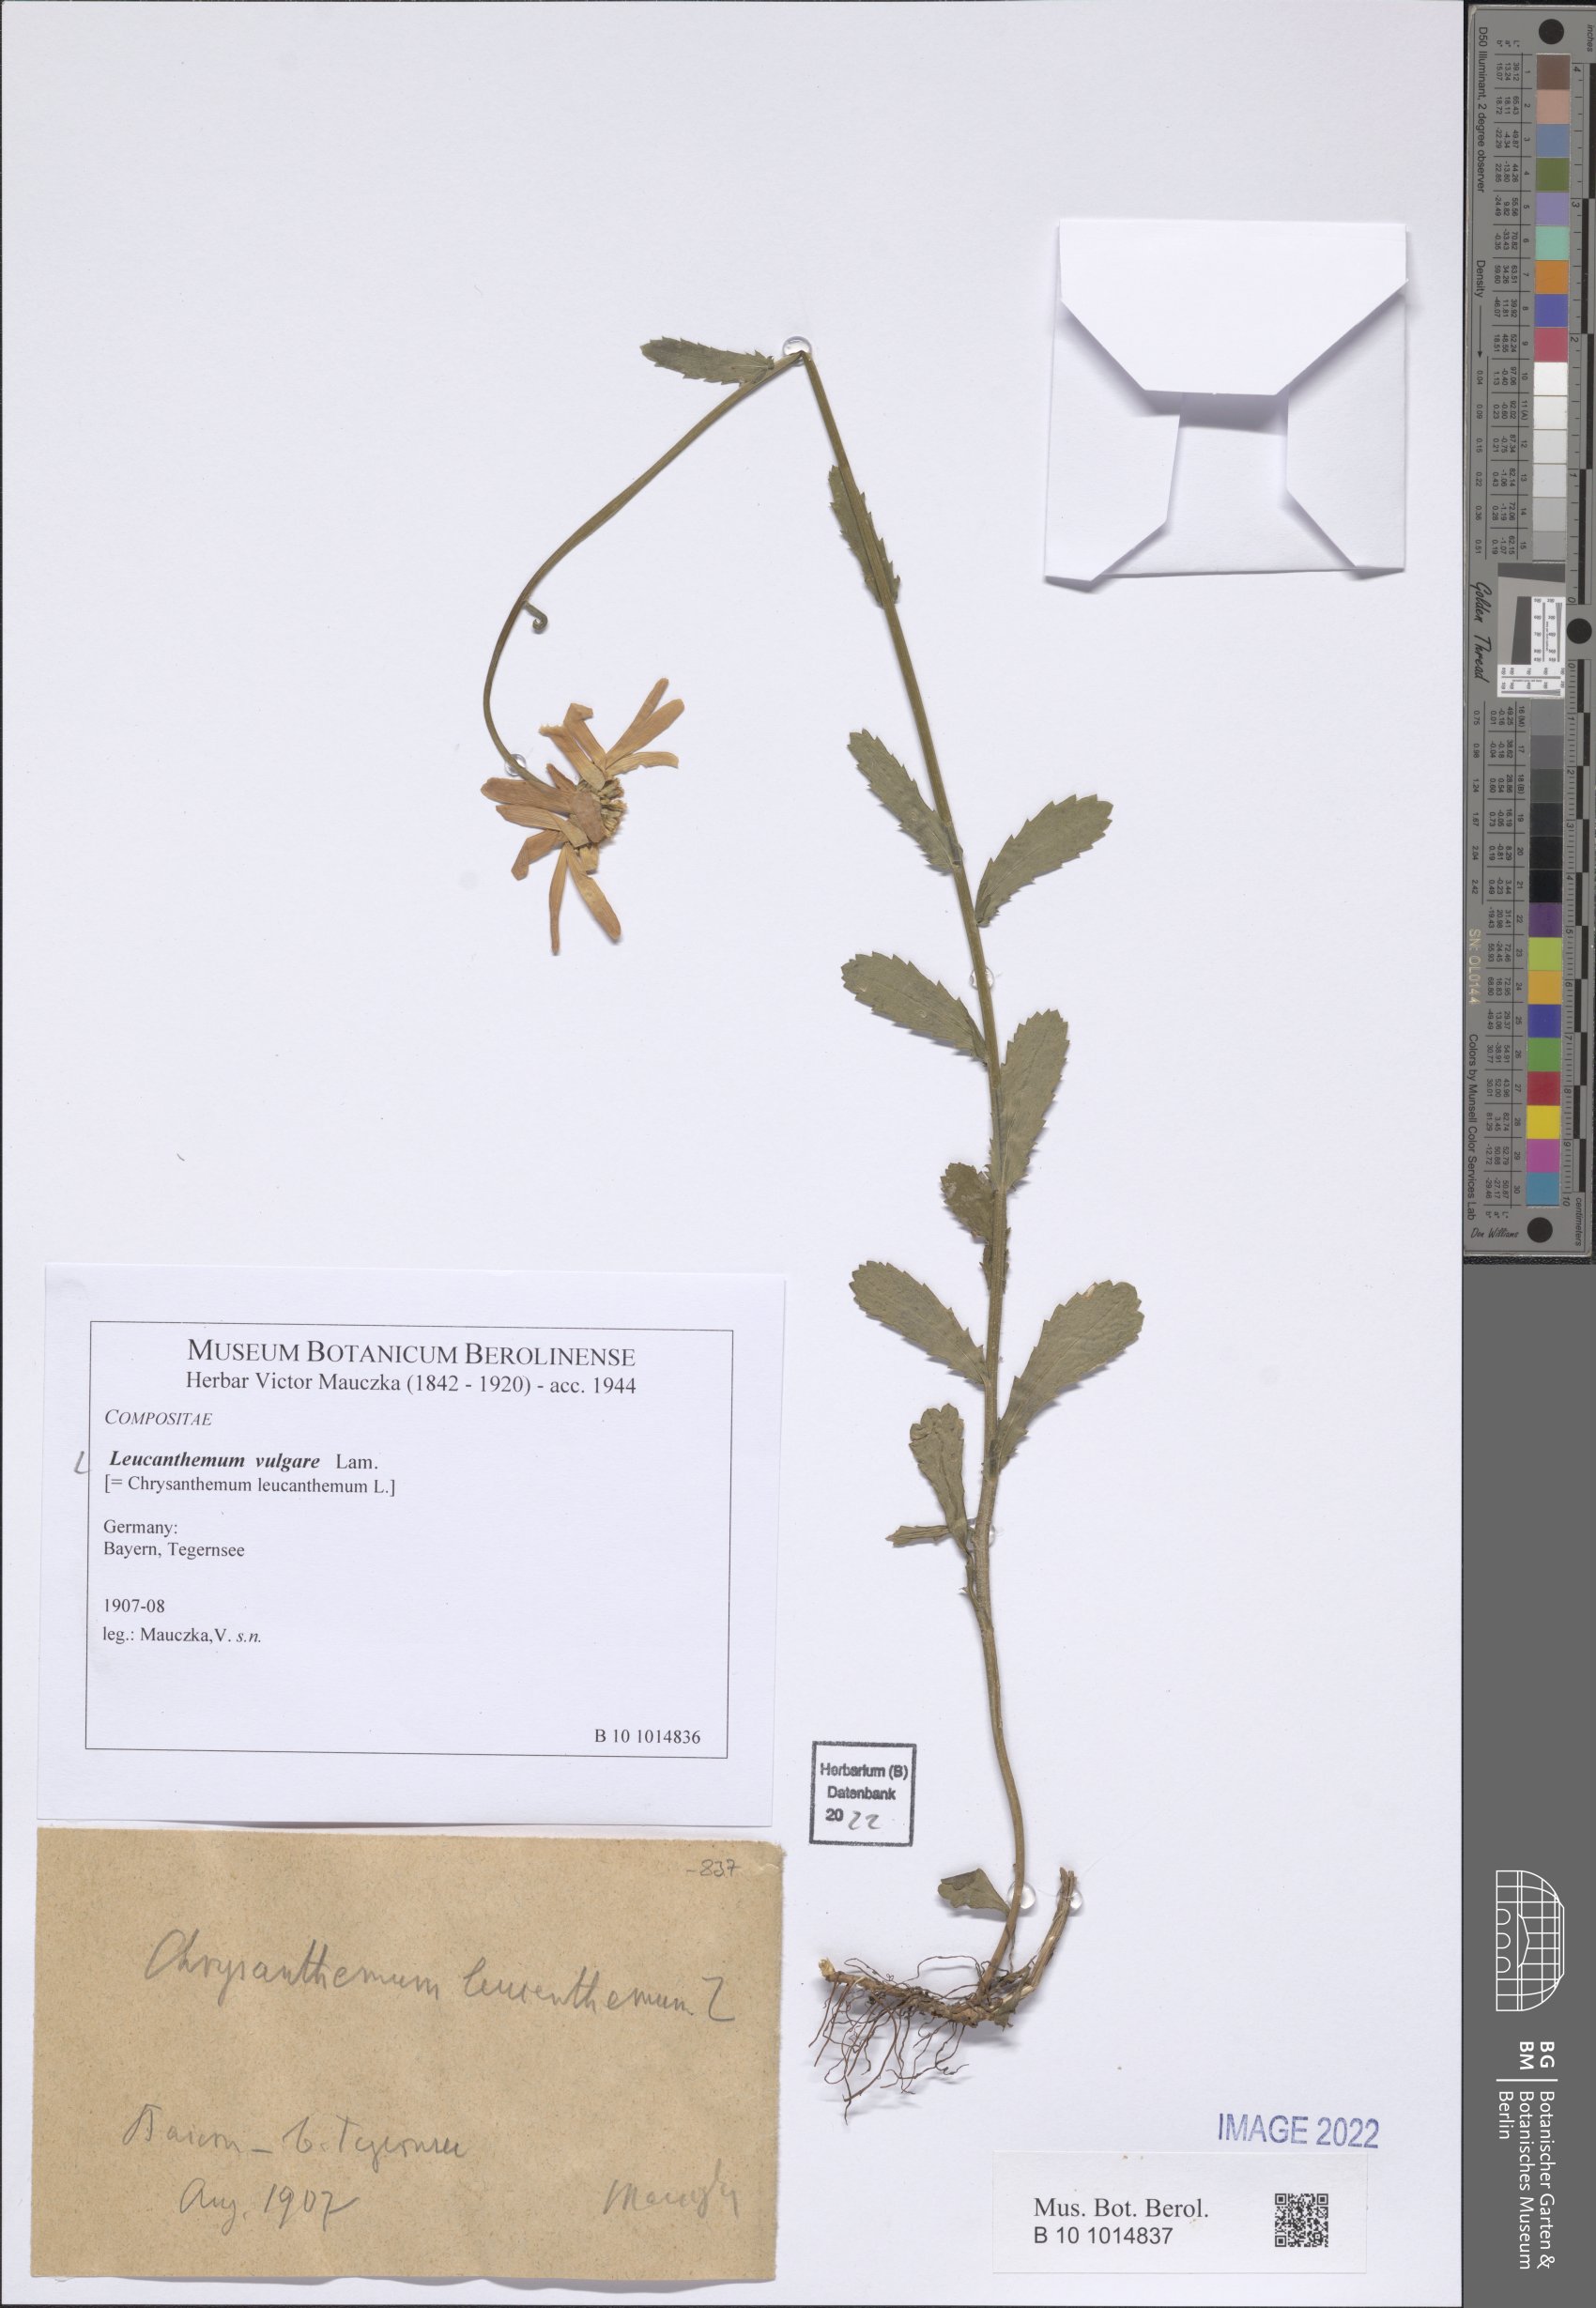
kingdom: Plantae
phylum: Tracheophyta
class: Magnoliopsida
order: Asterales
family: Asteraceae
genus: Leucanthemum
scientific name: Leucanthemum ircutianum
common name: Daisy
